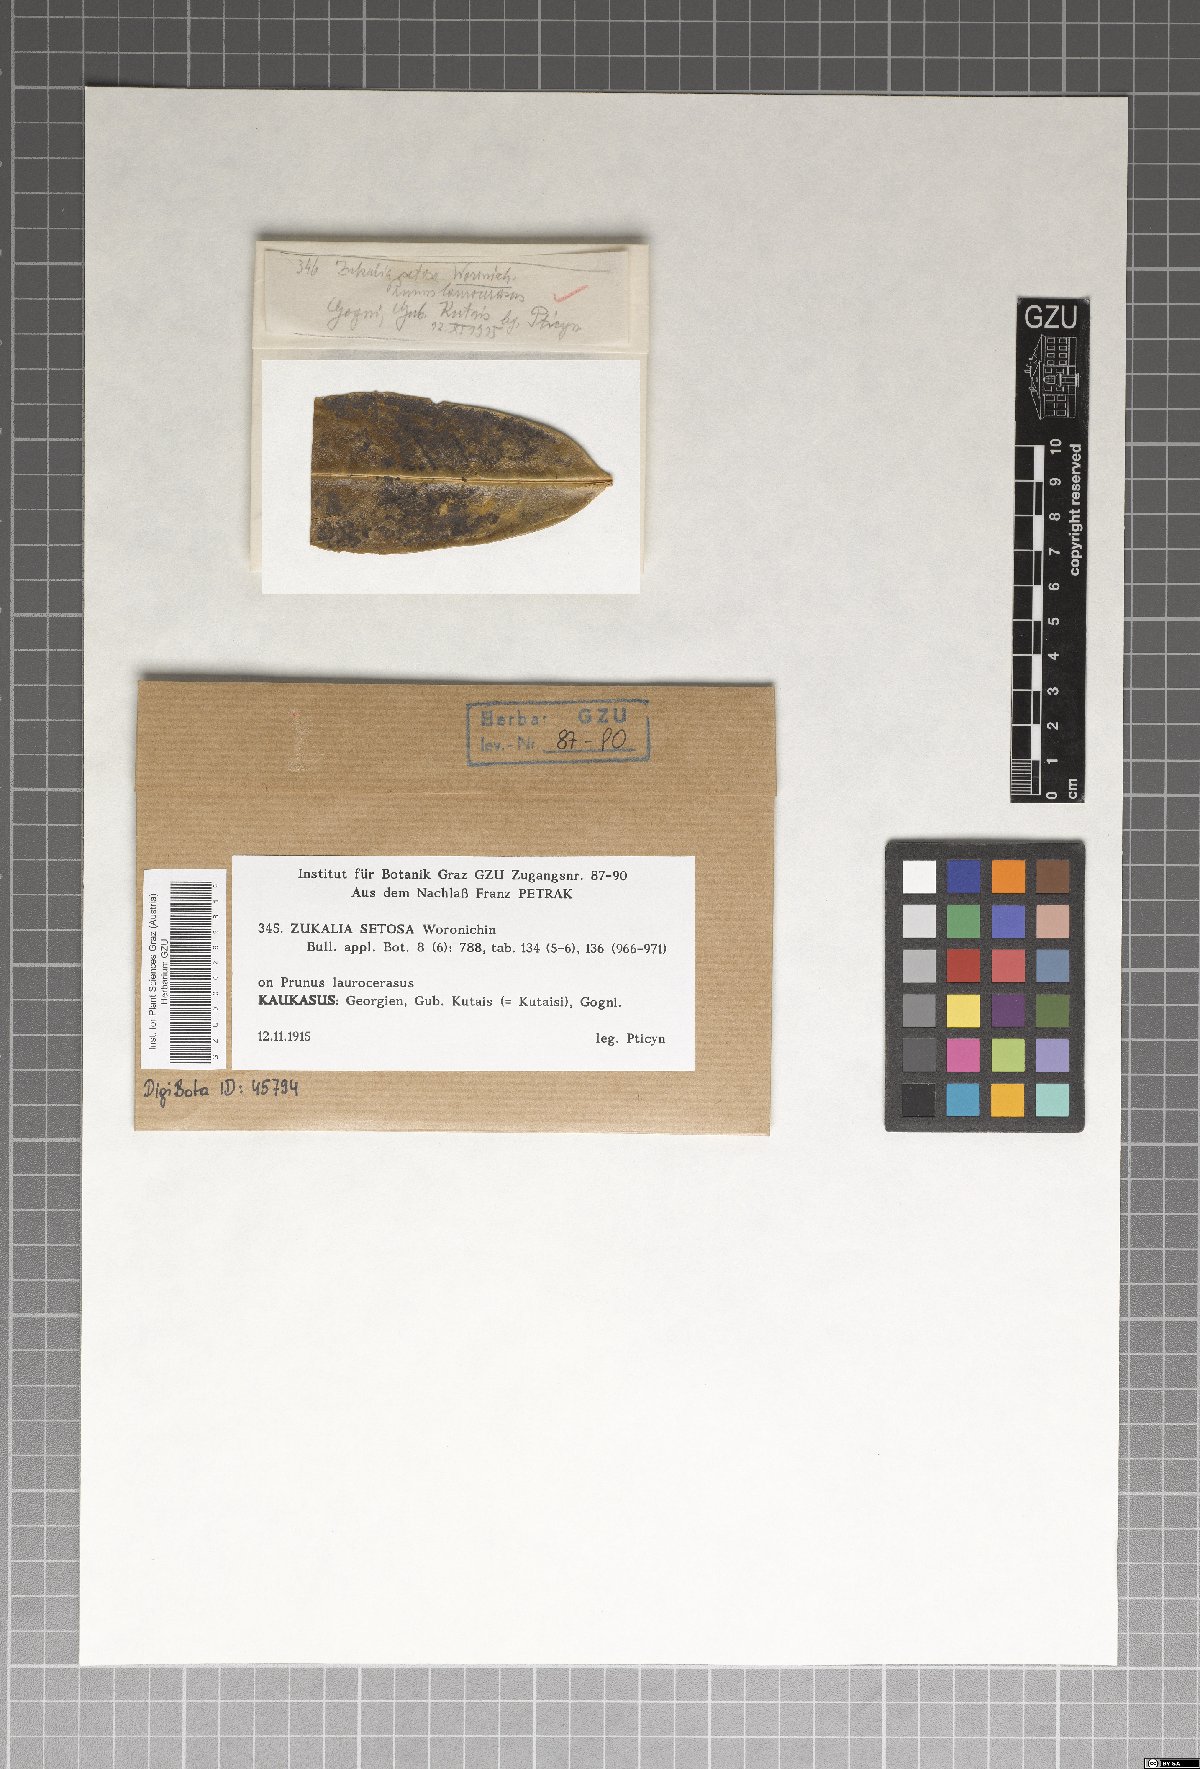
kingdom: Fungi
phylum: Ascomycota
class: Eurotiomycetes
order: Chaetothyriales
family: Chaetothyriaceae
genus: Zukalia
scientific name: Zukalia
